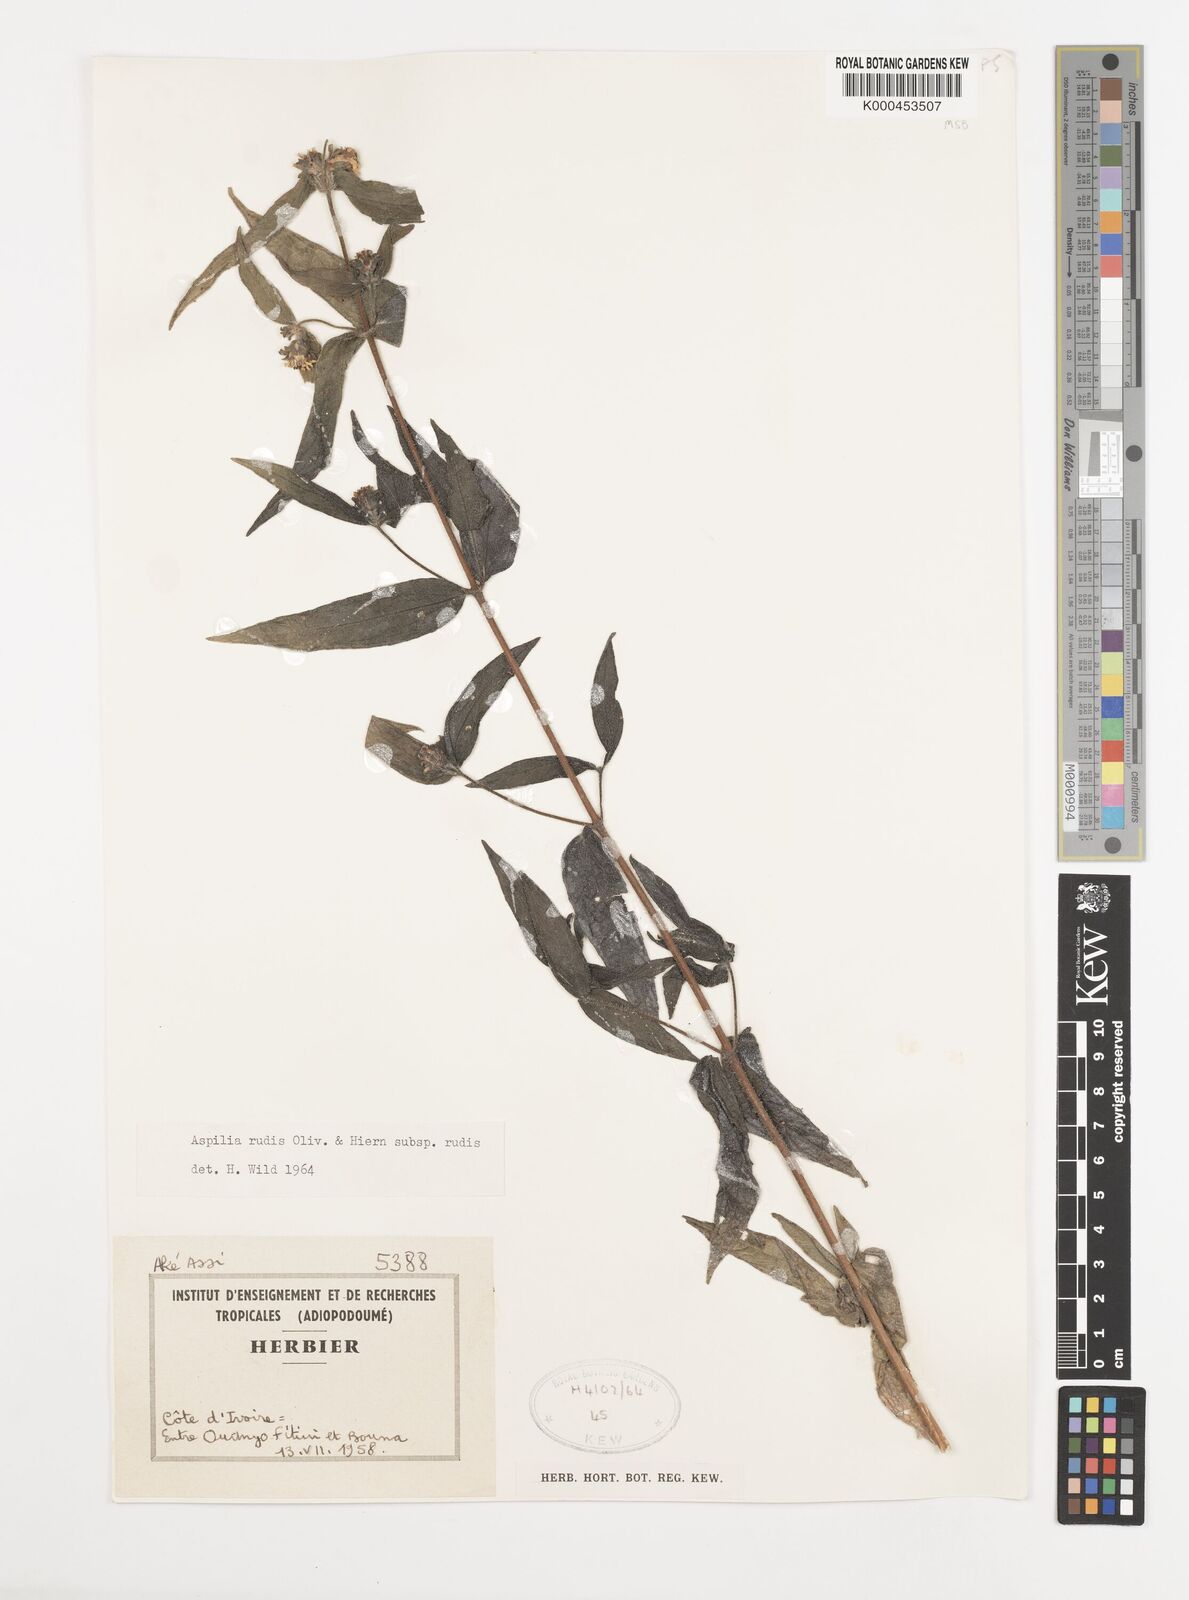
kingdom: Plantae
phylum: Tracheophyta
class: Magnoliopsida
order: Asterales
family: Asteraceae
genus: Aspilia
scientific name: Aspilia rudis
